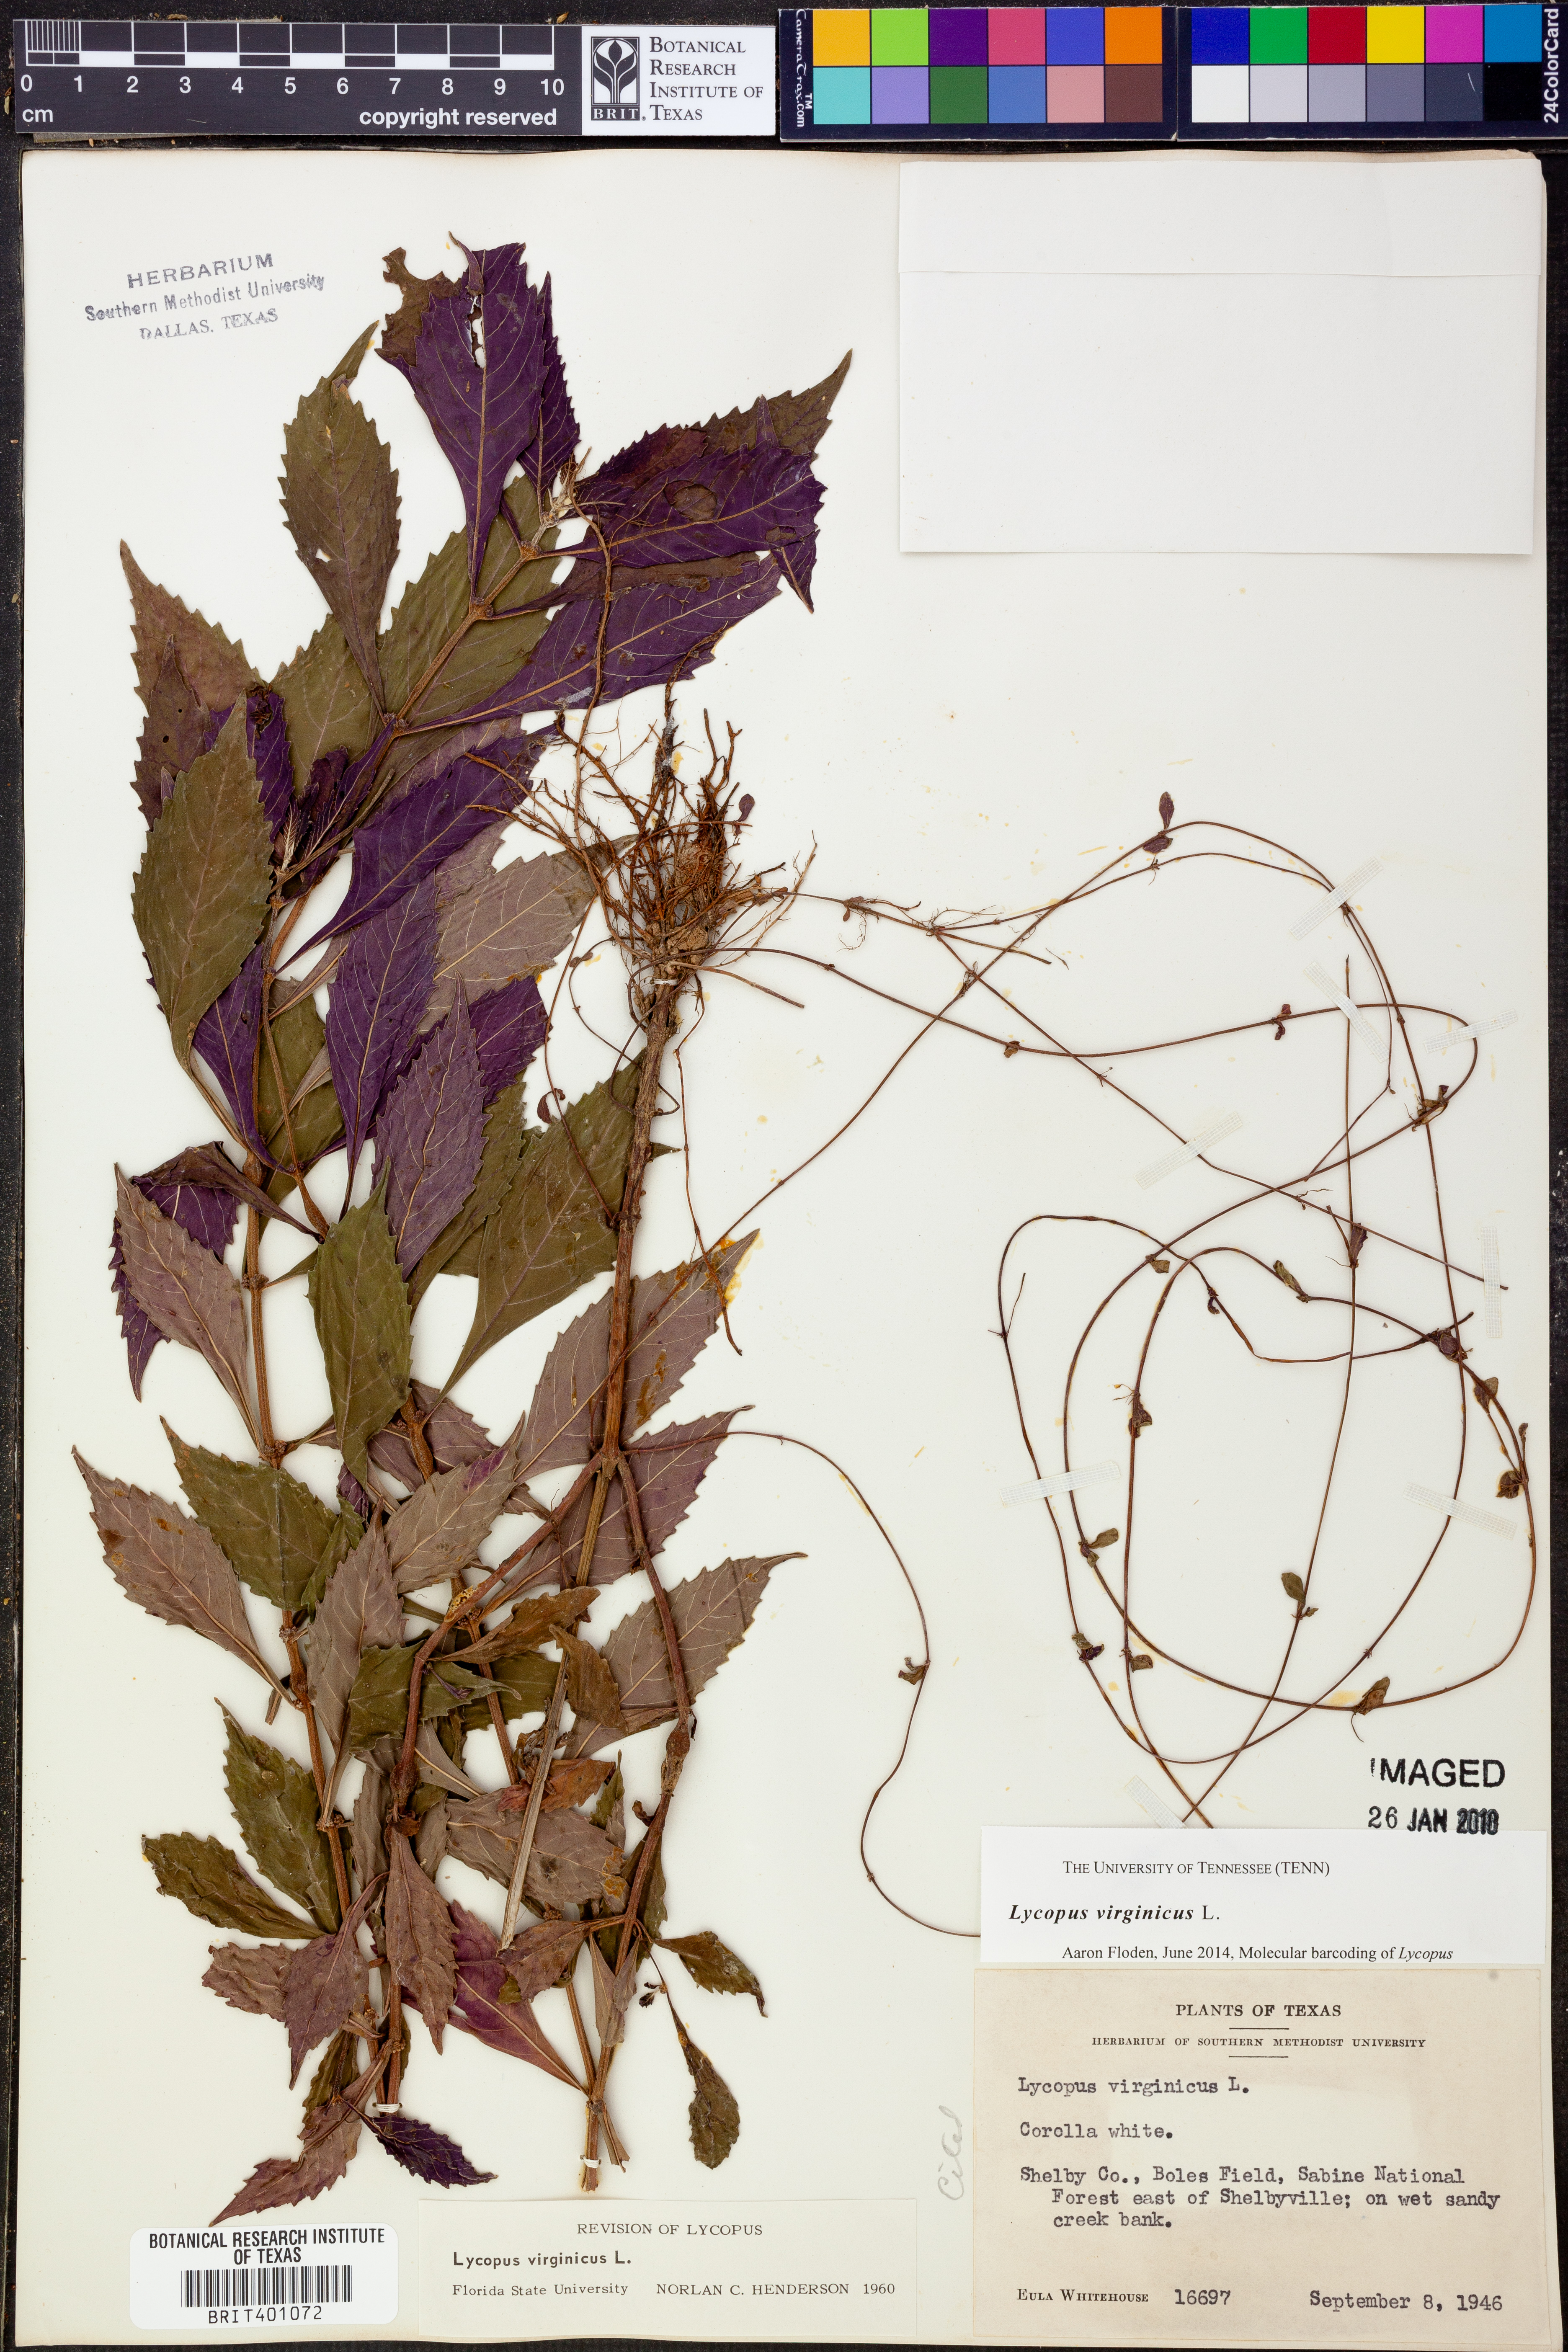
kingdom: Plantae
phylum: Tracheophyta
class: Magnoliopsida
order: Lamiales
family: Lamiaceae
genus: Lycopus
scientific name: Lycopus virginicus
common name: Bugleweed
